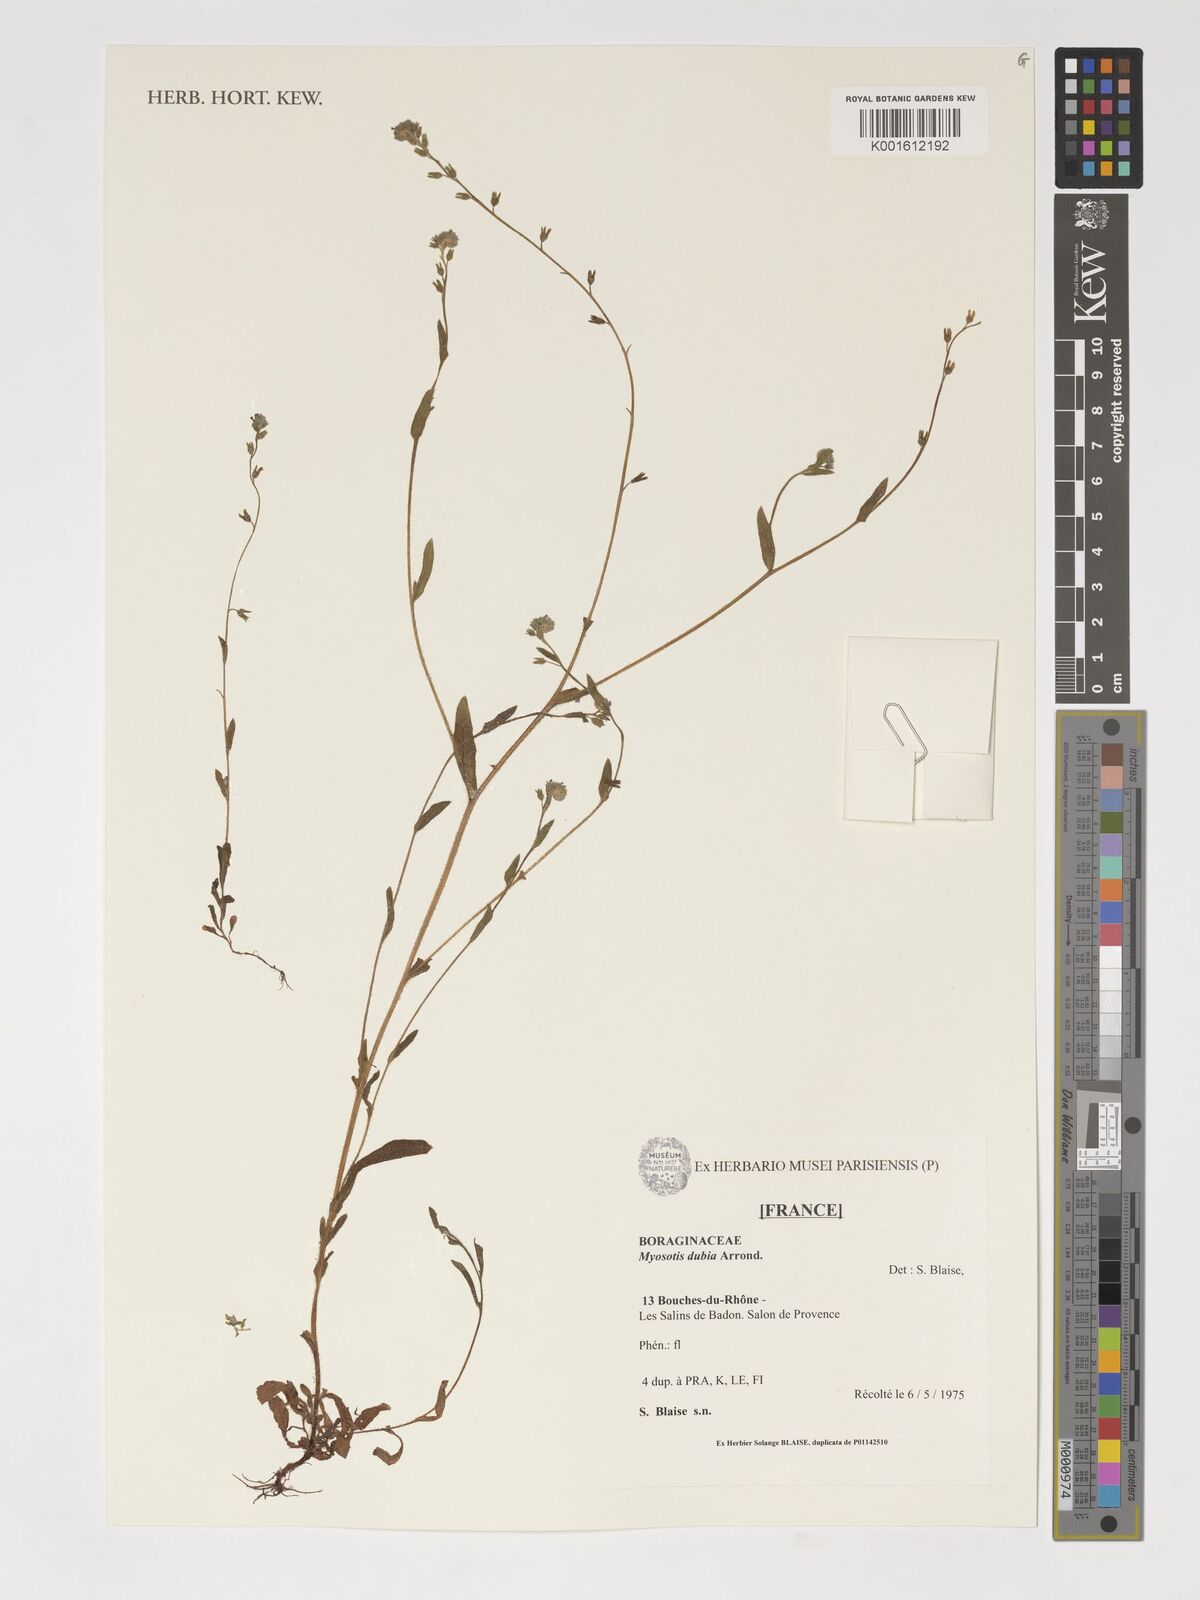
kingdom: Plantae
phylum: Tracheophyta
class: Magnoliopsida
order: Boraginales
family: Boraginaceae
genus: Myosotis
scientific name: Myosotis dubia
